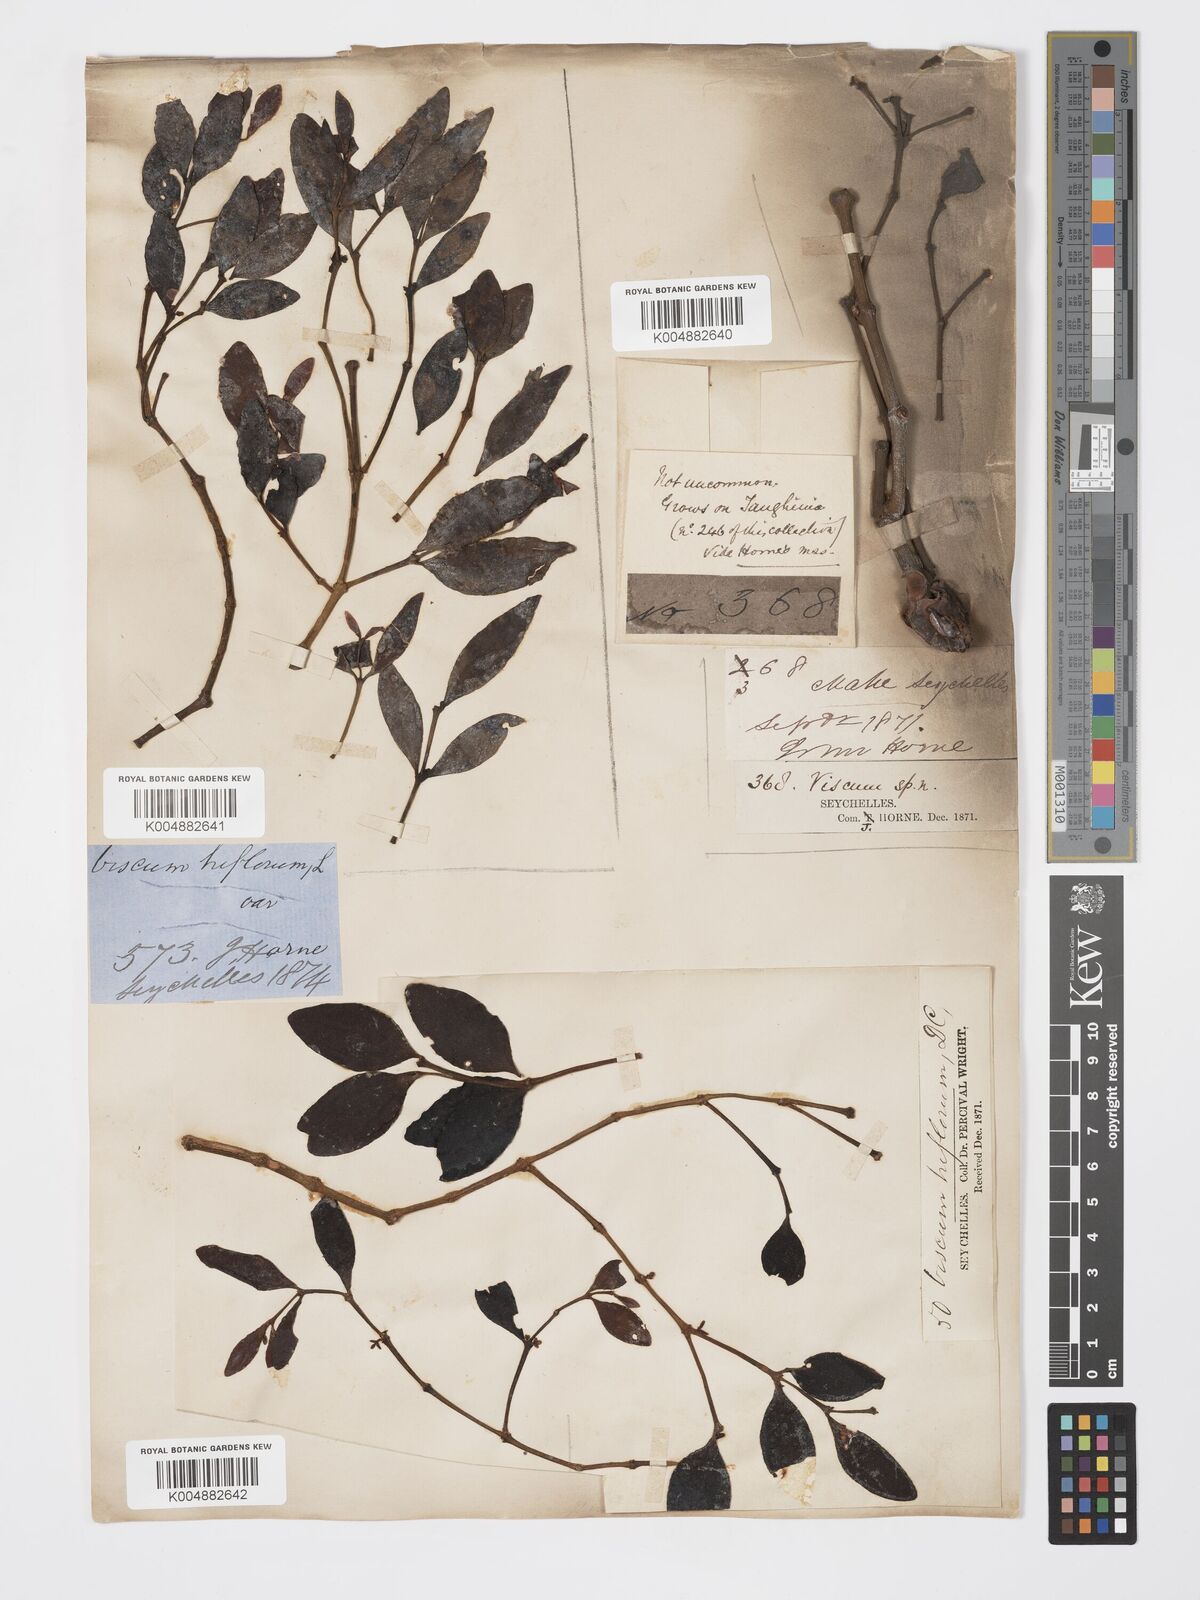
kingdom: Plantae
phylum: Tracheophyta
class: Magnoliopsida
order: Santalales
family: Viscaceae
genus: Viscum
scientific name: Viscum triflorum
